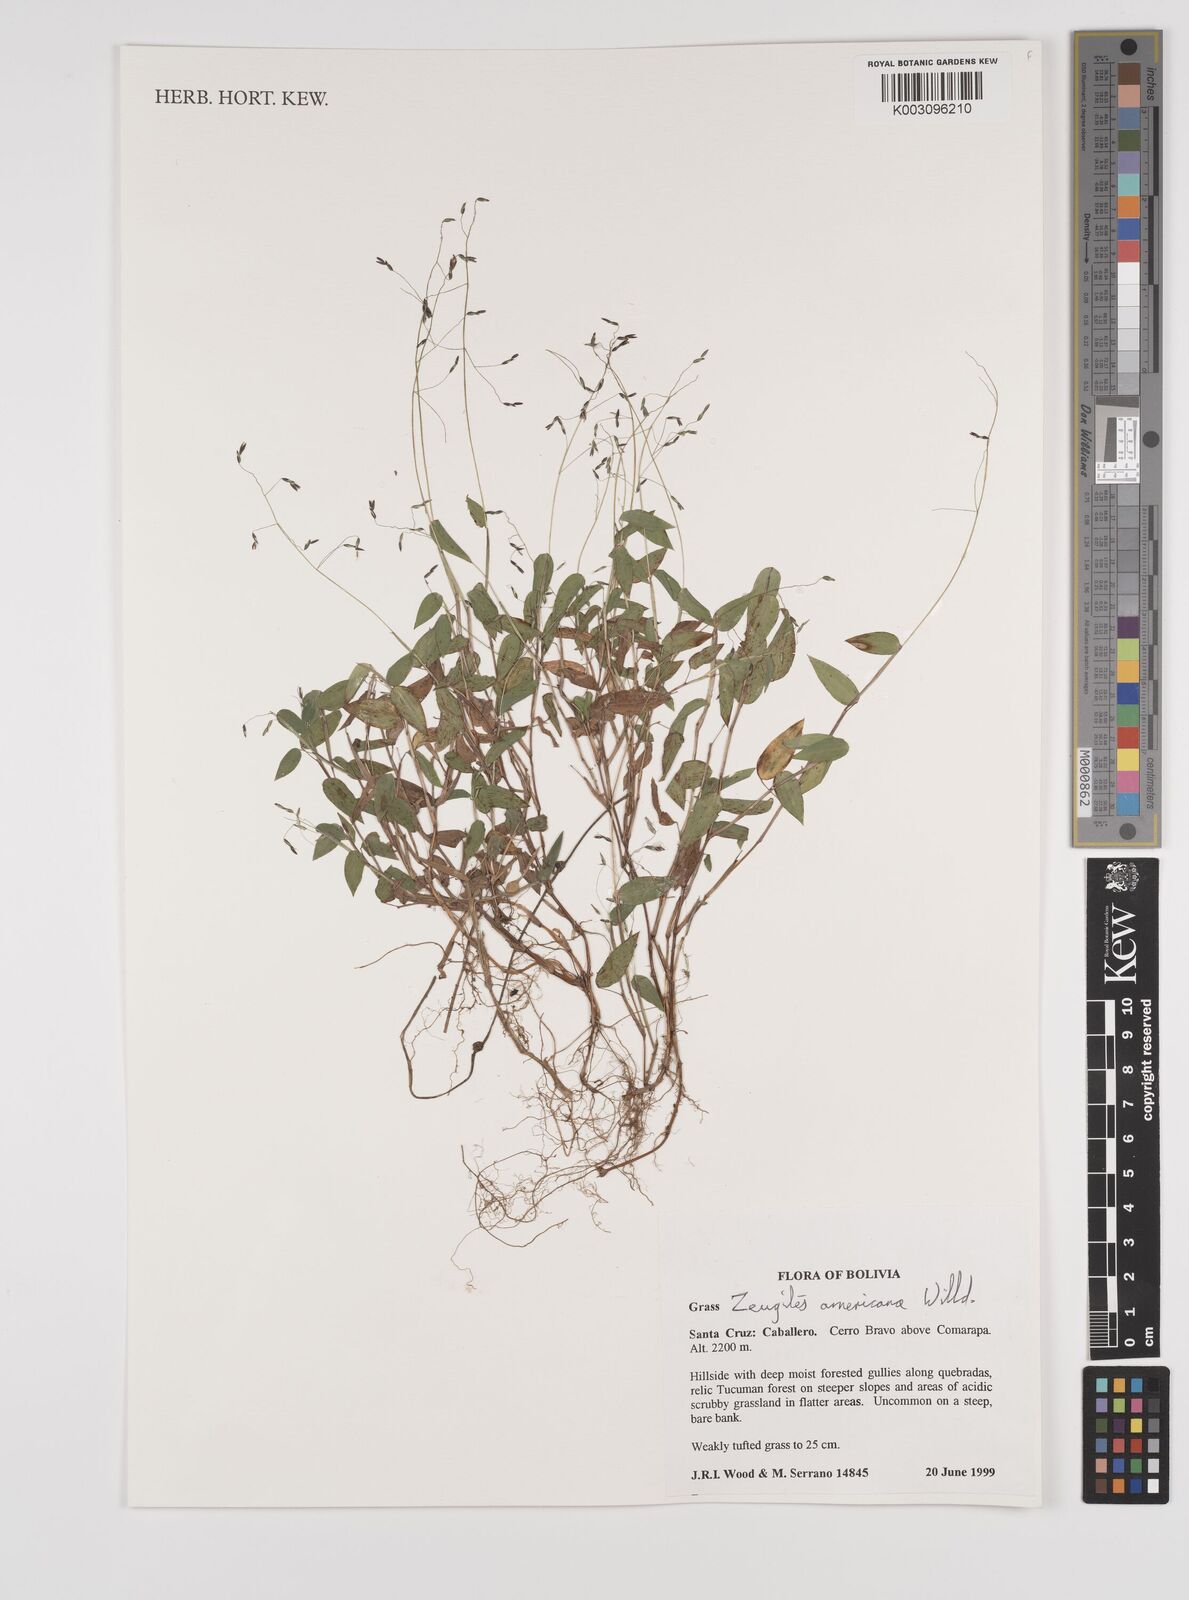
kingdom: Plantae
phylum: Tracheophyta
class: Liliopsida
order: Poales
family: Poaceae
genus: Zeugites
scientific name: Zeugites americanus
